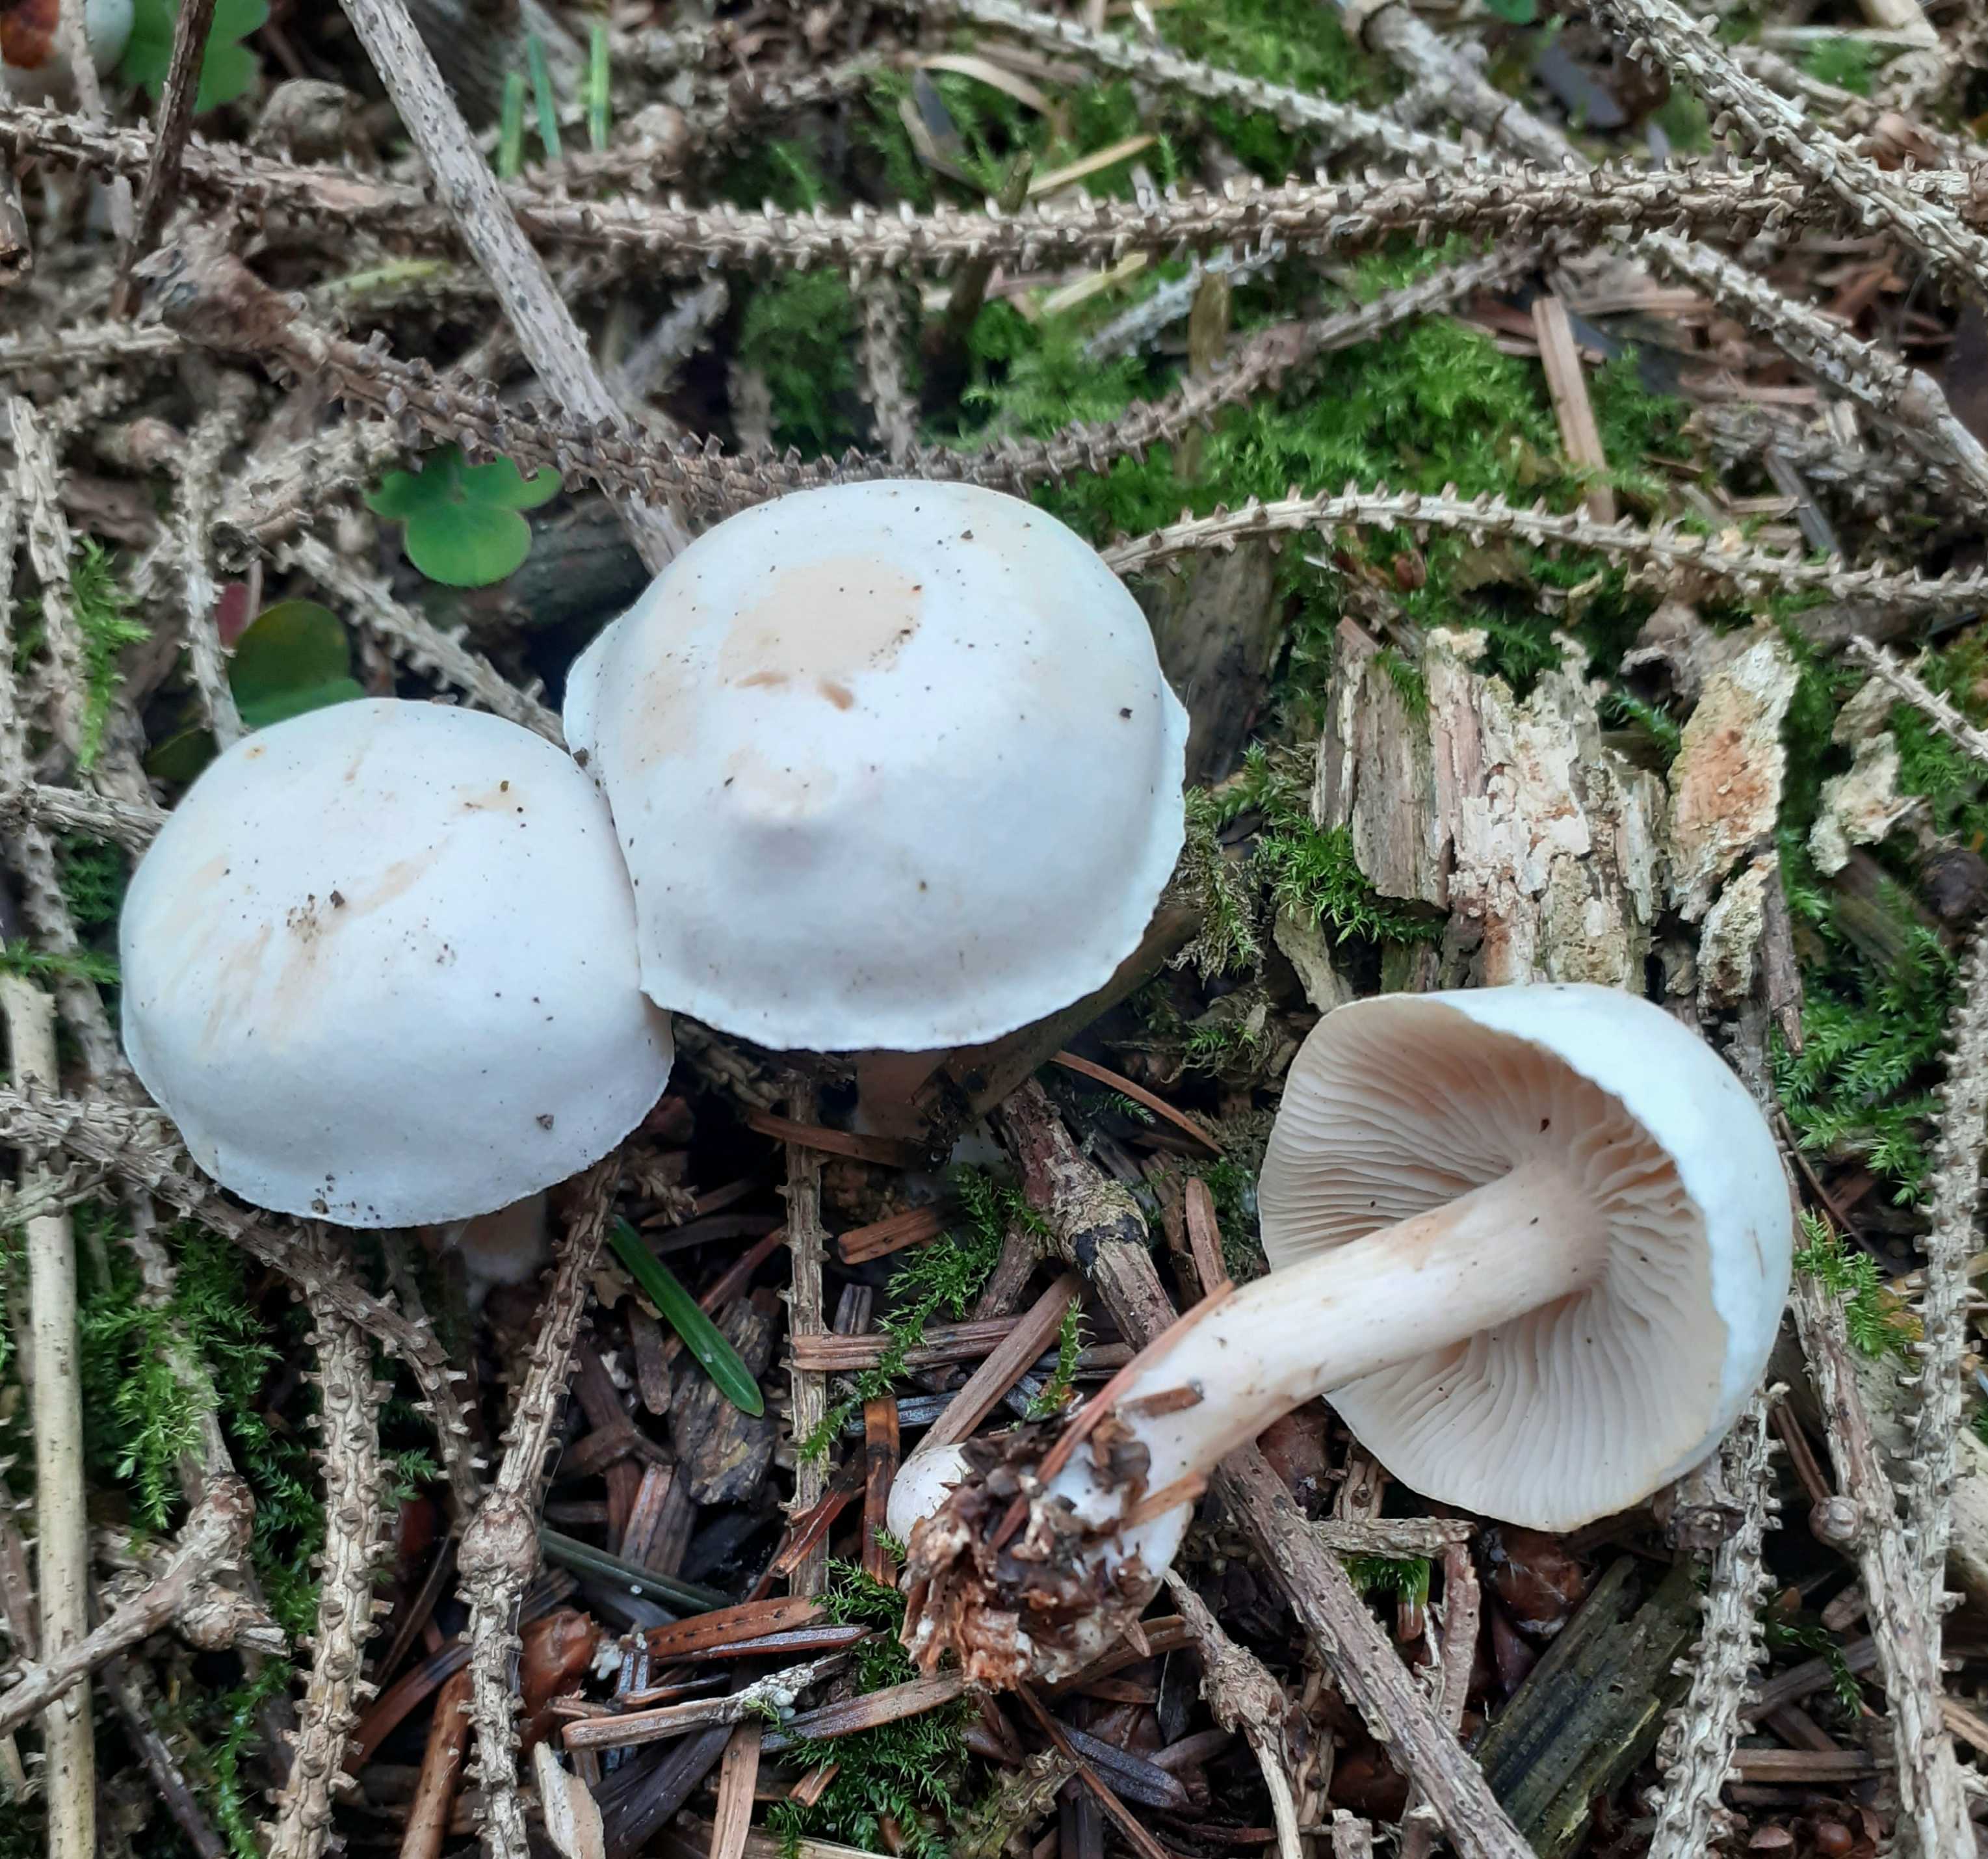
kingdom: Fungi
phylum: Basidiomycota
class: Agaricomycetes
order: Agaricales
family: Tricholomataceae
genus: Clitocybe
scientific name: Clitocybe phyllophila
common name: løv-tragthat
